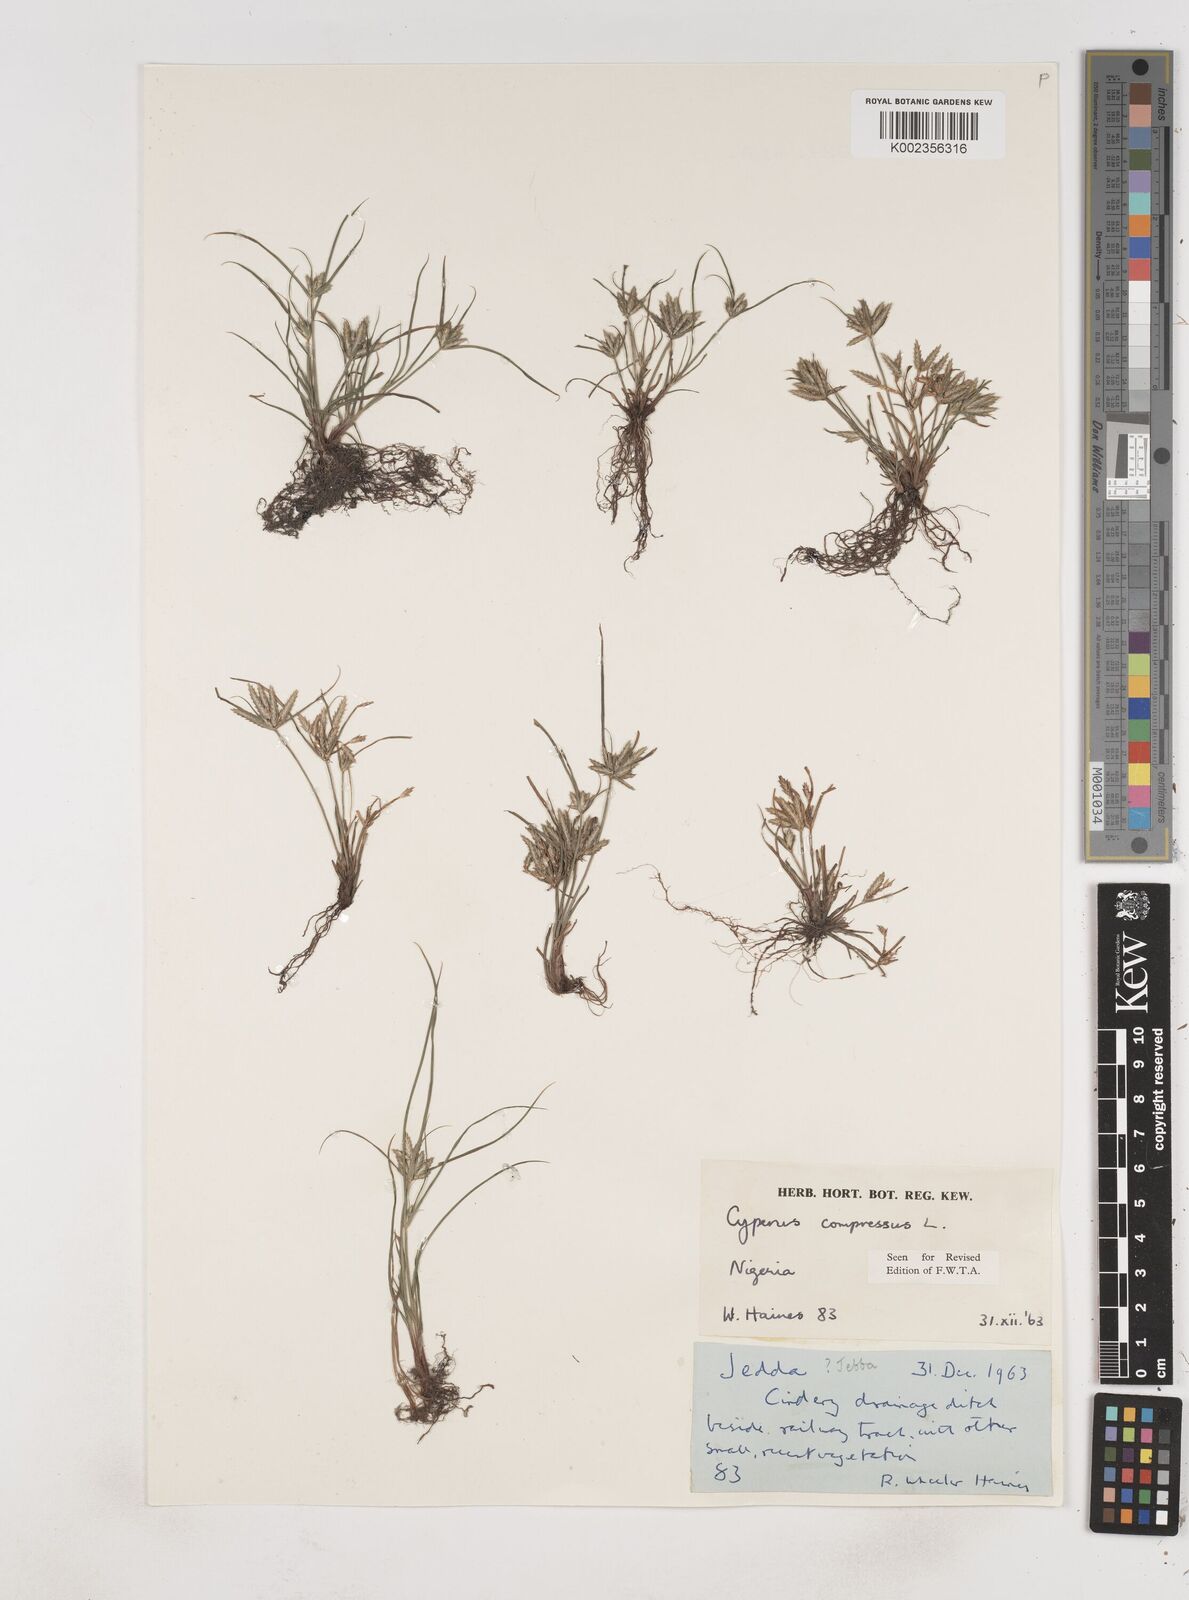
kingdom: Plantae
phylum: Tracheophyta
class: Liliopsida
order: Poales
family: Cyperaceae
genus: Cyperus
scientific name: Cyperus compressus
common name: Poorland flatsedge
